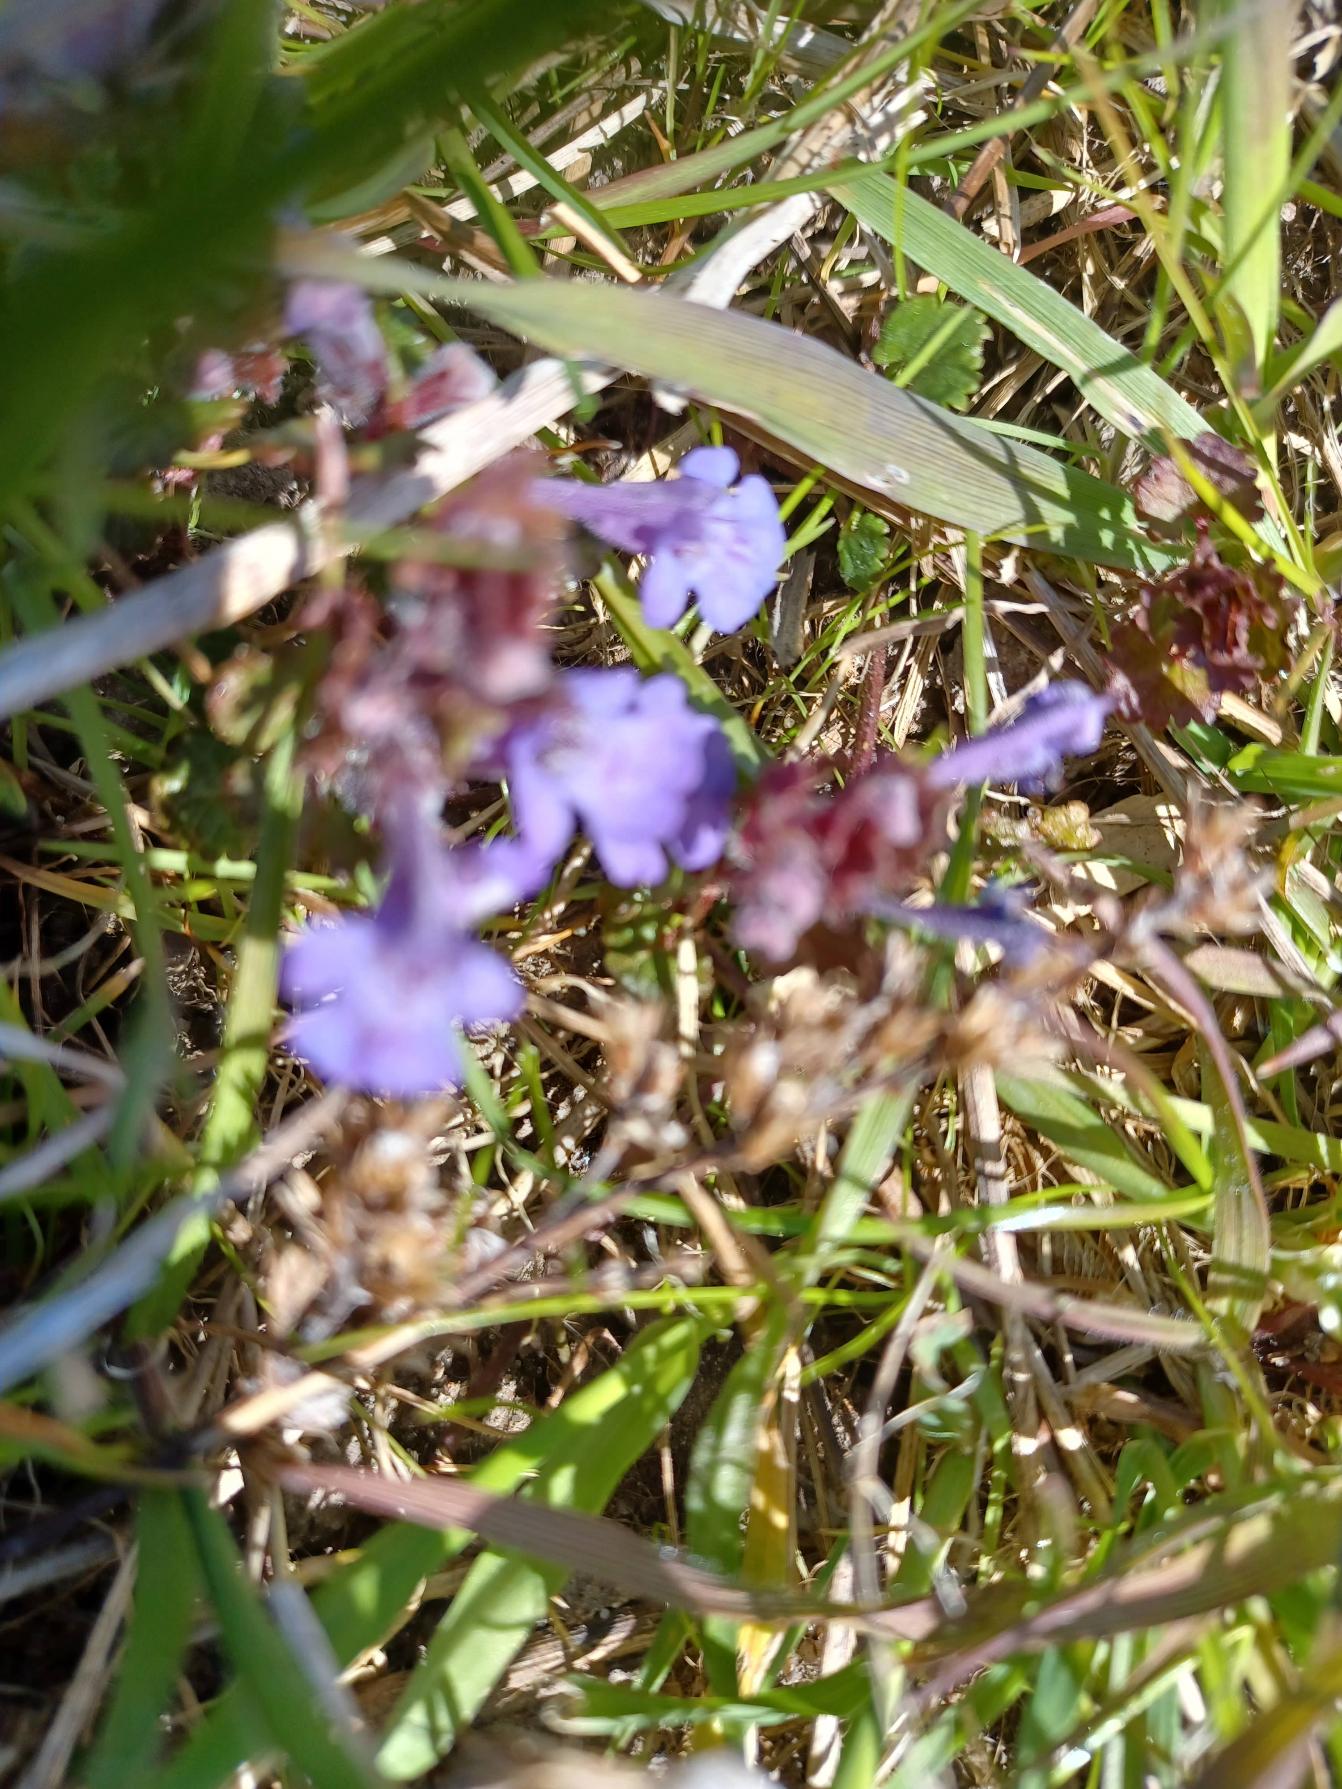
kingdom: Plantae
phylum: Tracheophyta
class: Magnoliopsida
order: Lamiales
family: Lamiaceae
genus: Glechoma
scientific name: Glechoma hederacea
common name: Korsknap
